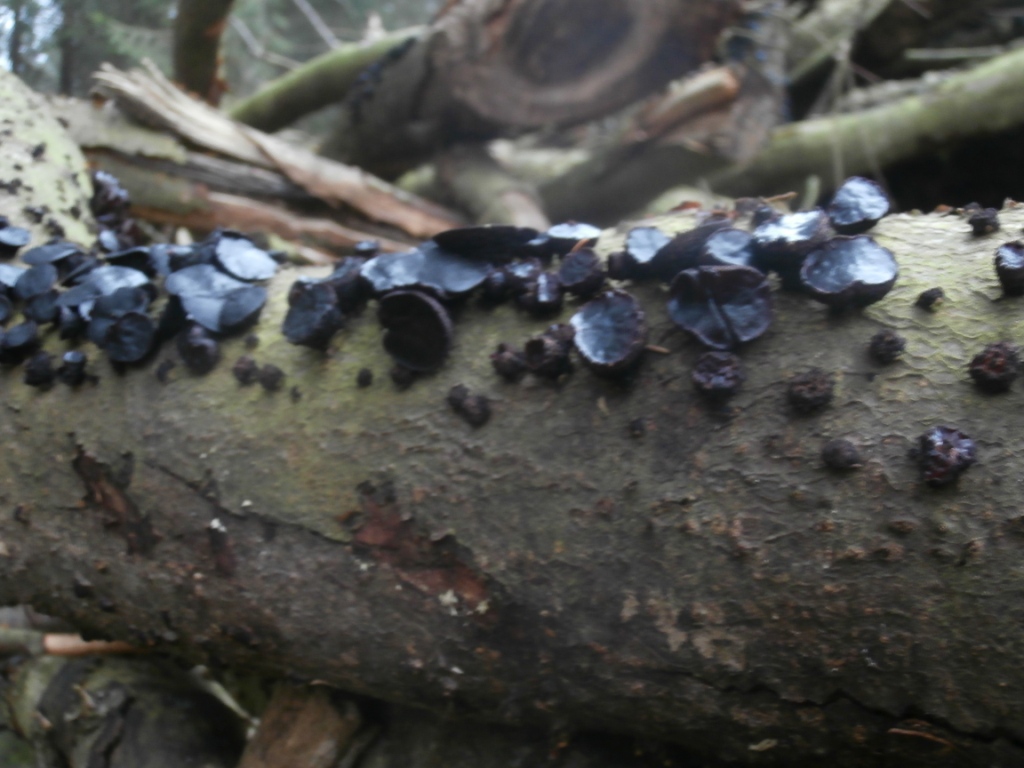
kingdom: Fungi
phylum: Ascomycota
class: Leotiomycetes
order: Phacidiales
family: Phacidiaceae
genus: Bulgaria
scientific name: Bulgaria inquinans
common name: afsmittende topsvamp
